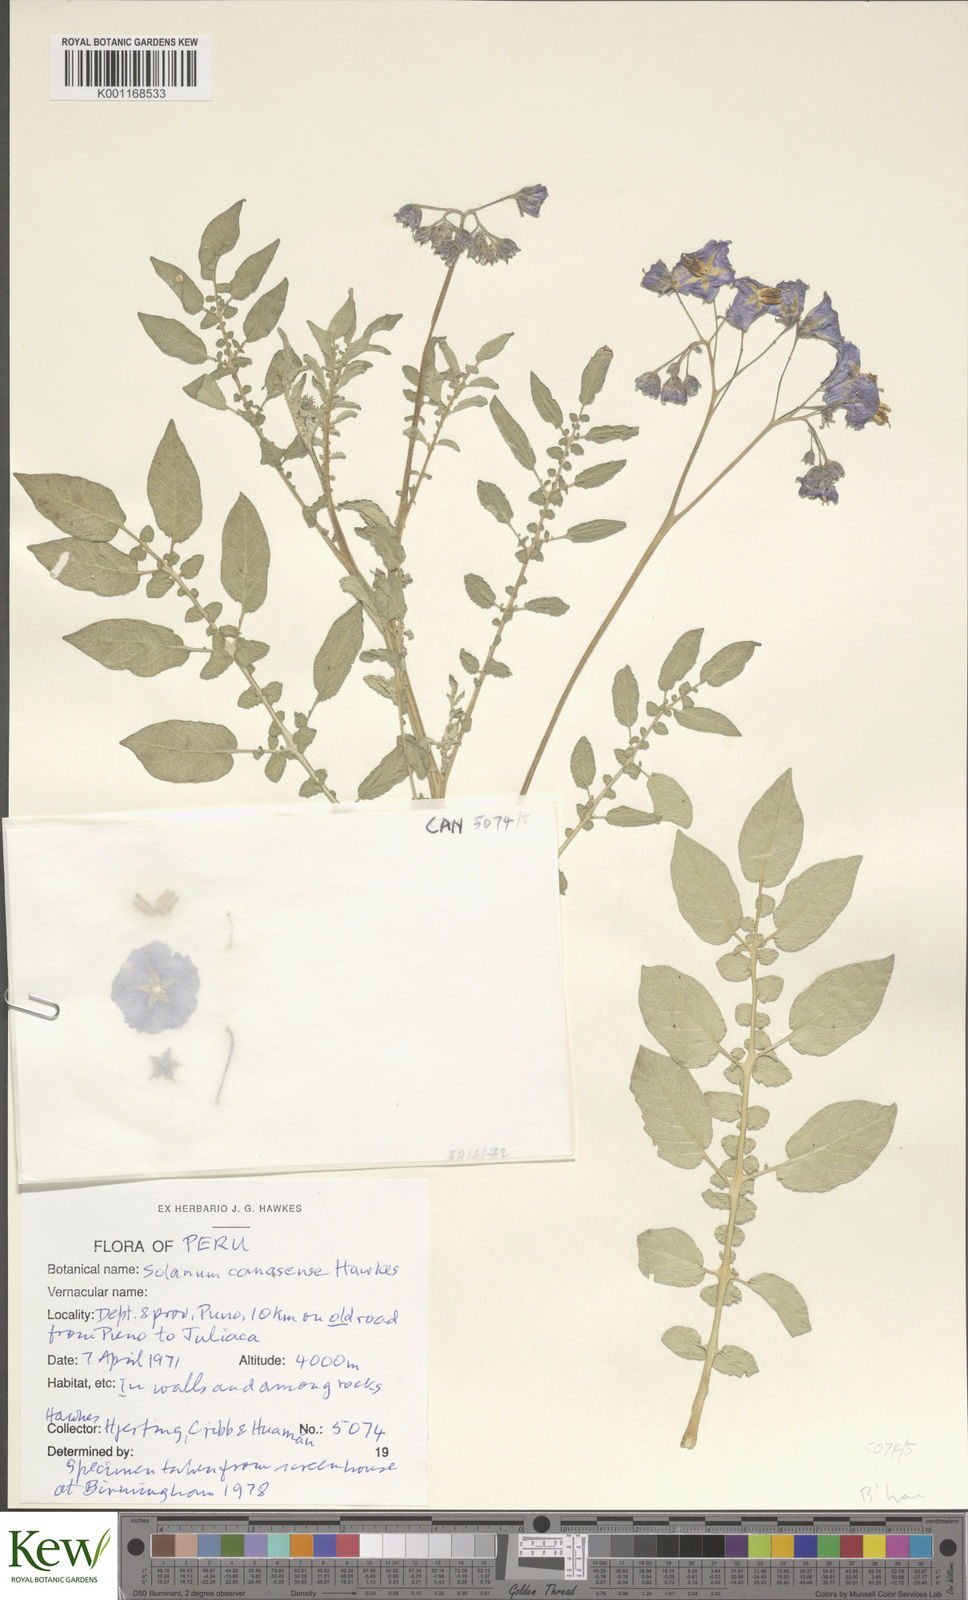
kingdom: Plantae
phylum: Tracheophyta
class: Magnoliopsida
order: Solanales
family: Solanaceae
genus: Solanum
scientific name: Solanum candolleanum
